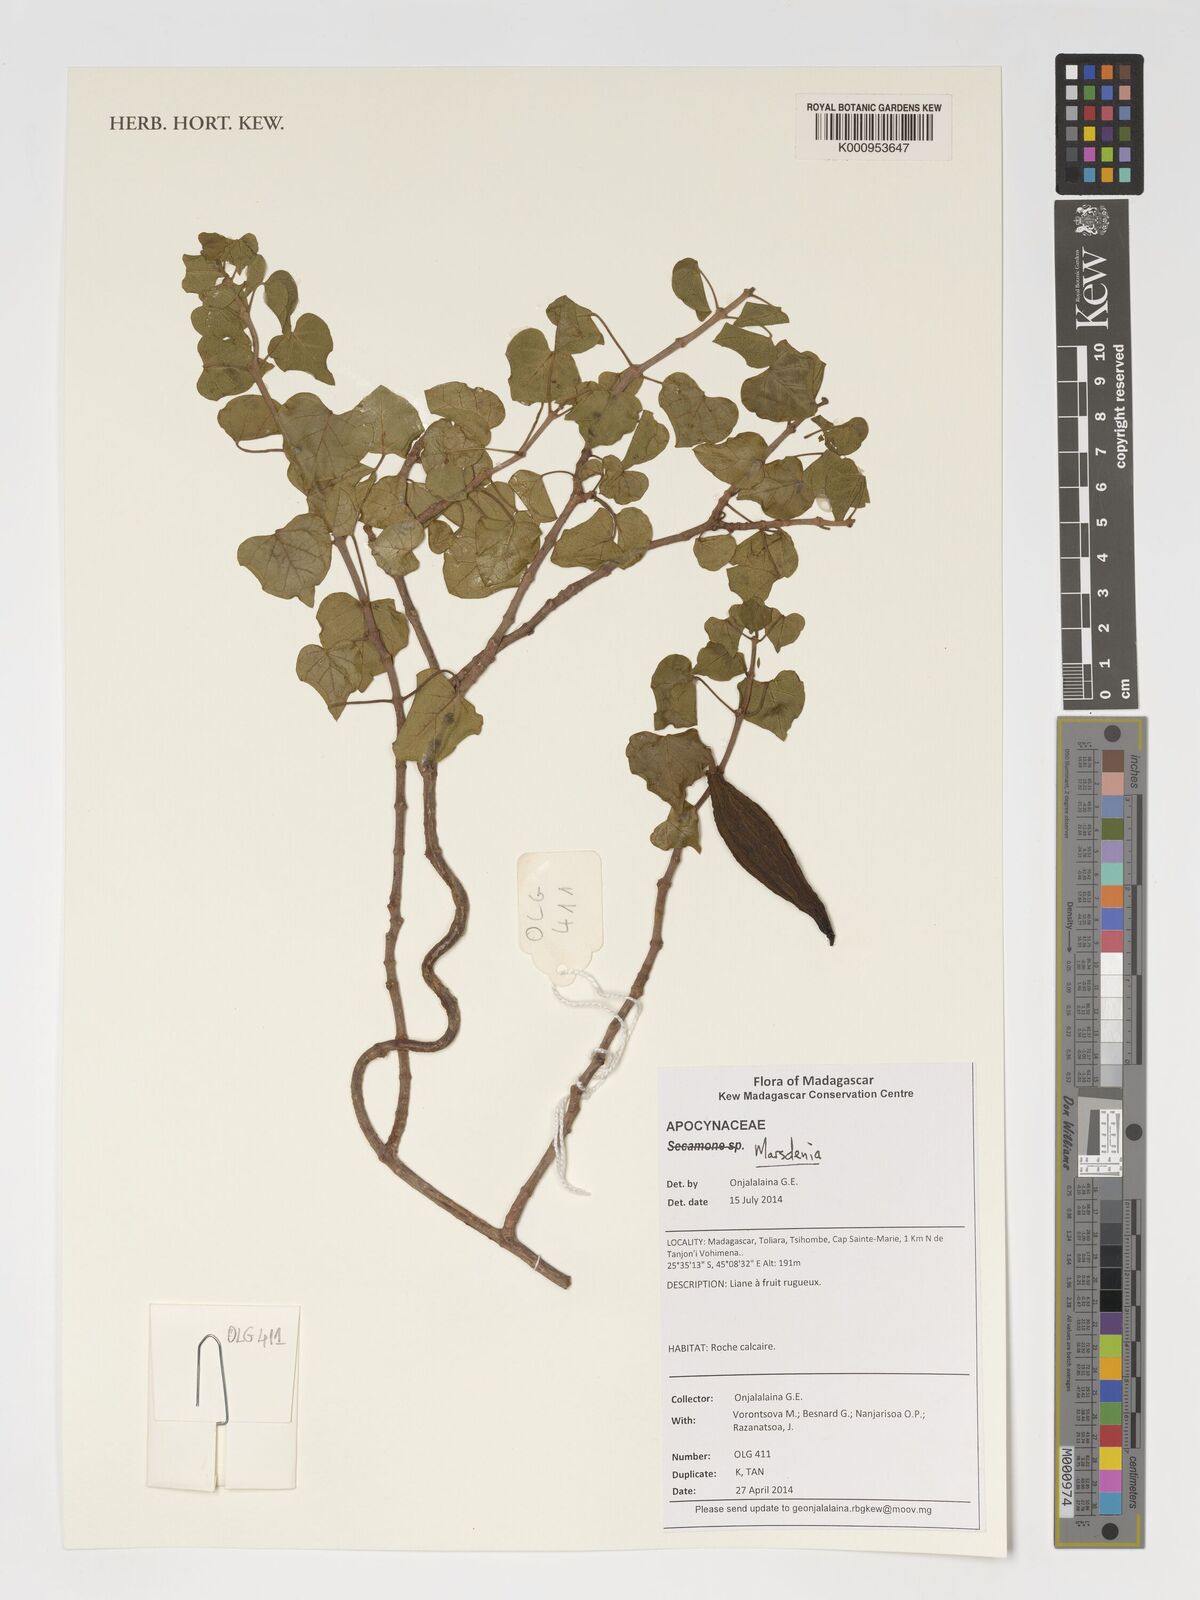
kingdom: Plantae
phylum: Tracheophyta
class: Magnoliopsida
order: Gentianales
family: Apocynaceae
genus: Marsdenia
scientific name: Marsdenia
